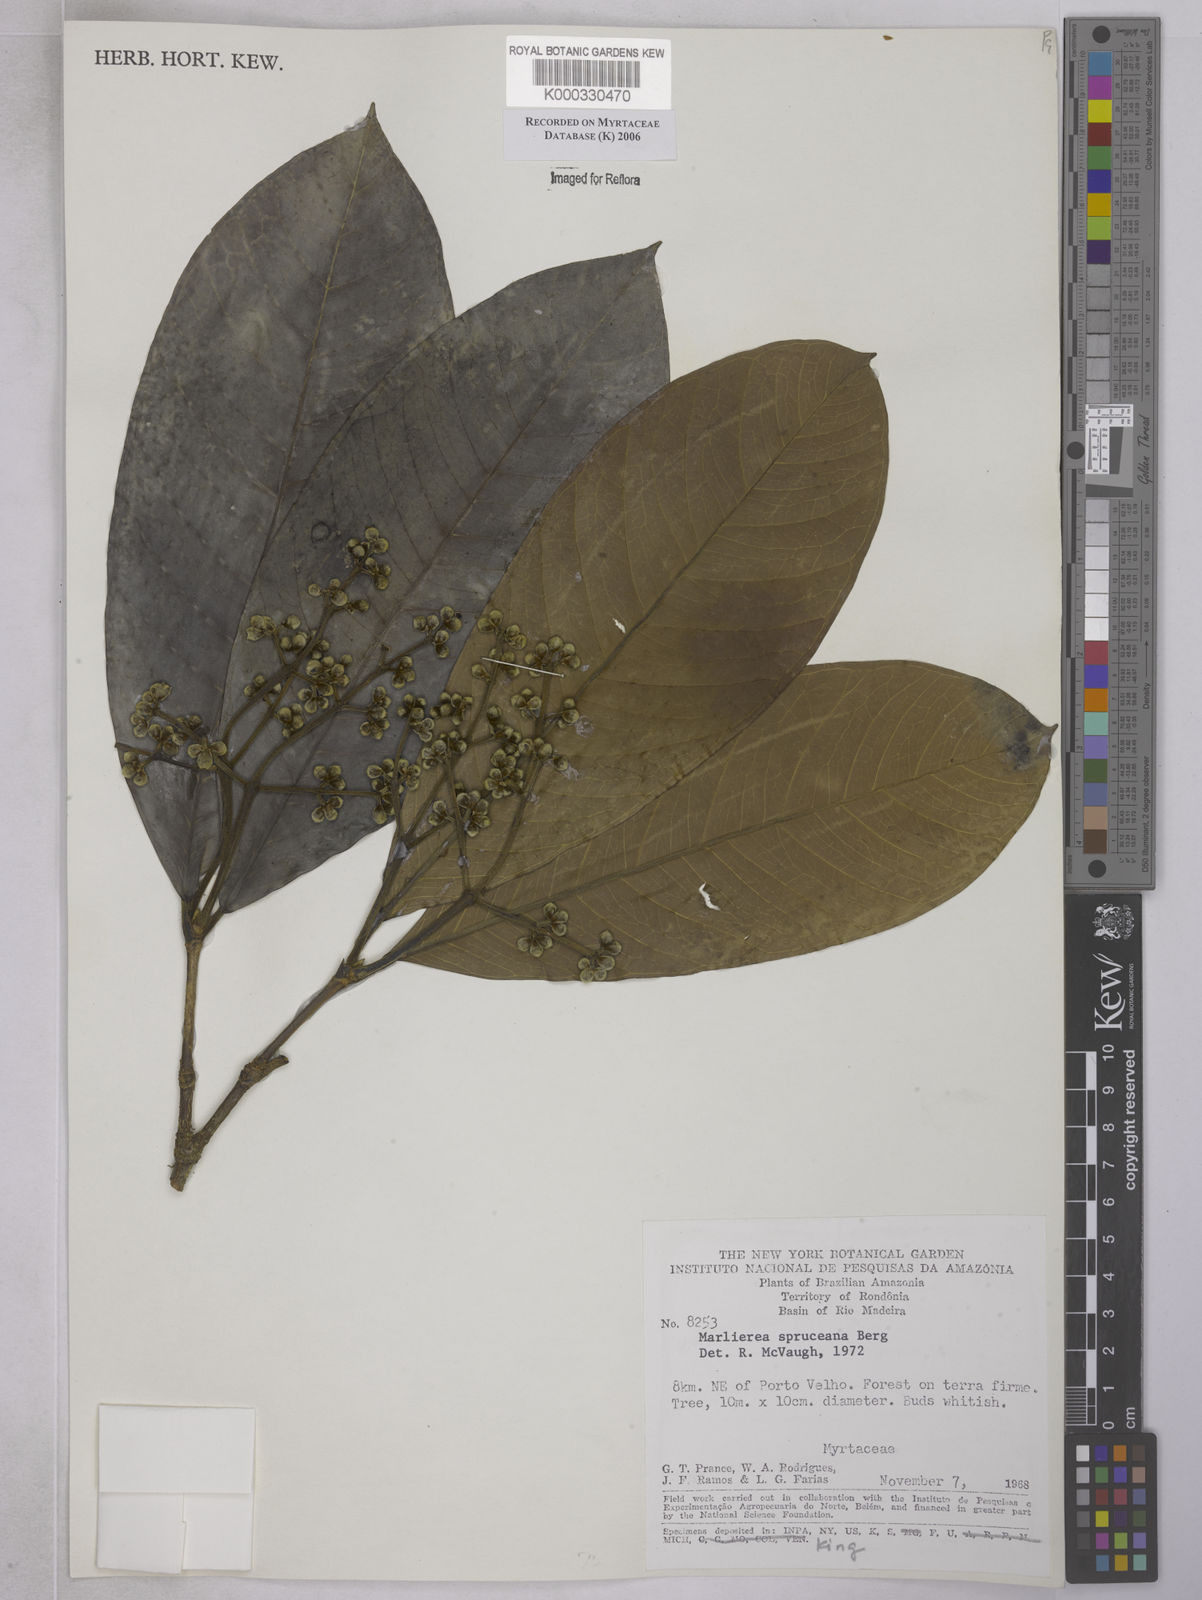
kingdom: Plantae
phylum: Tracheophyta
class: Magnoliopsida
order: Myrtales
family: Myrtaceae
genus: Myrcia
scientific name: Myrcia argentigemma
